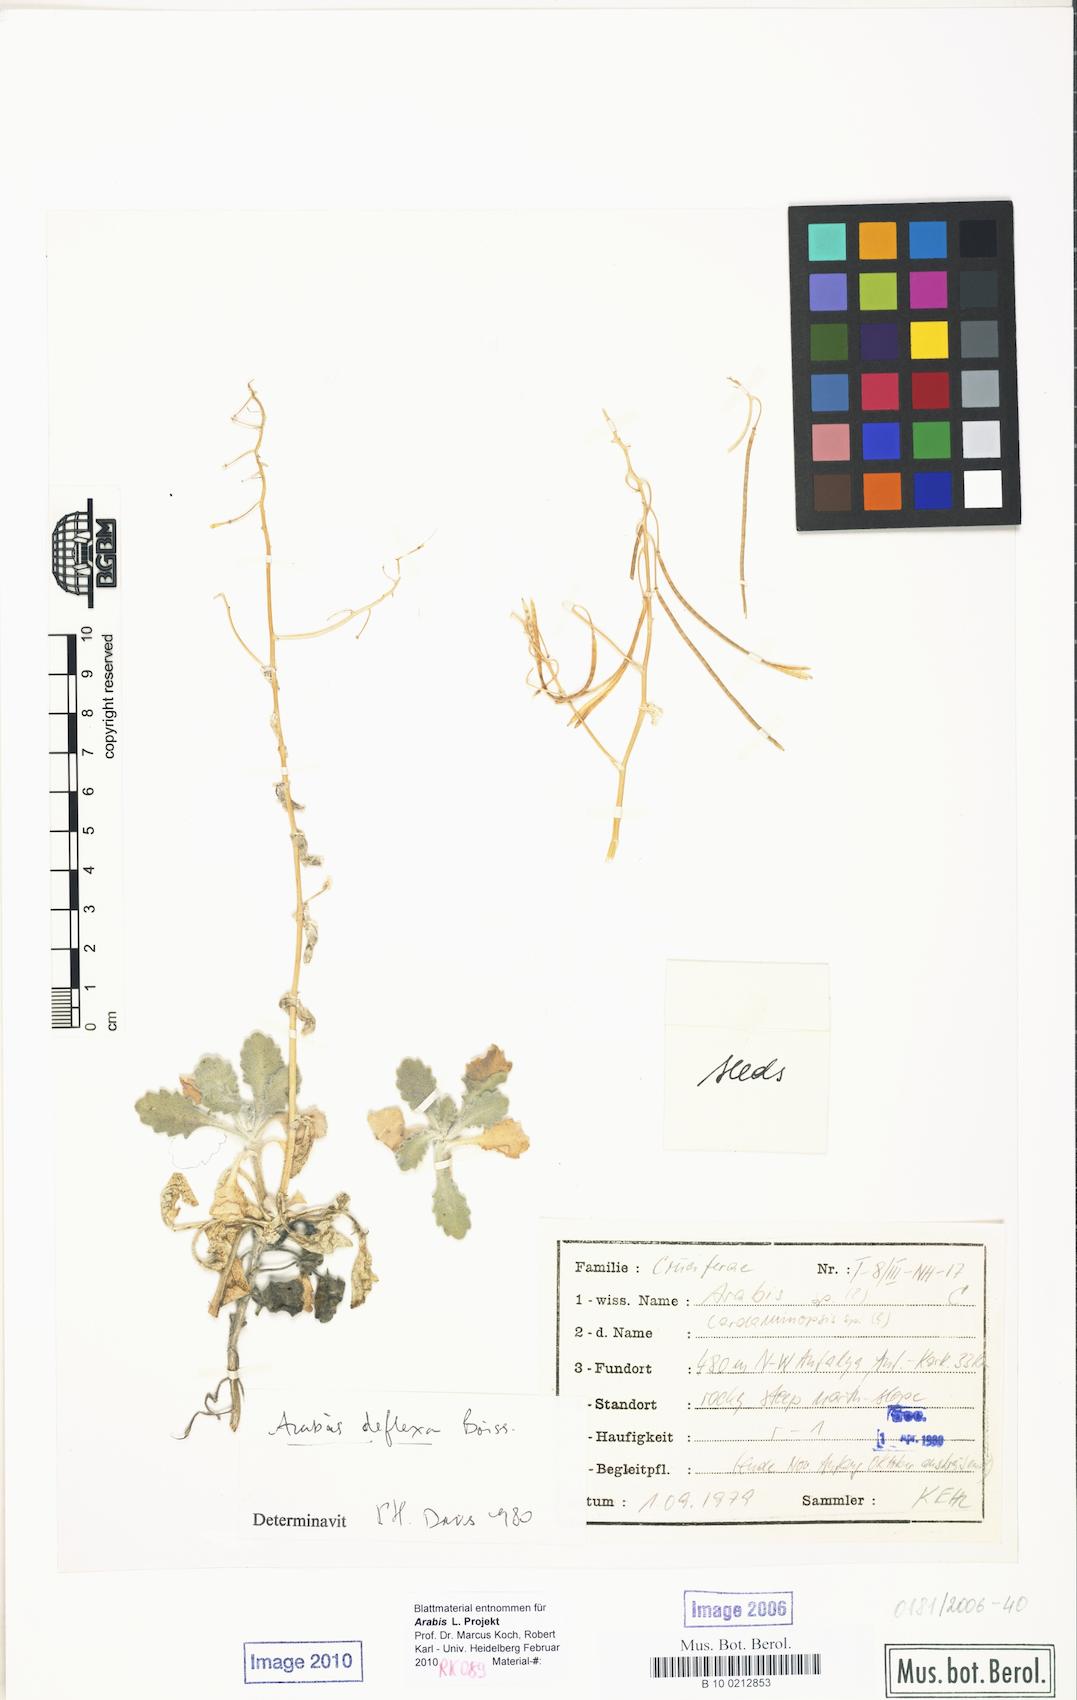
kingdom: Plantae
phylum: Tracheophyta
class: Magnoliopsida
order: Brassicales
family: Brassicaceae
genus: Arabis
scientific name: Arabis deflexa
